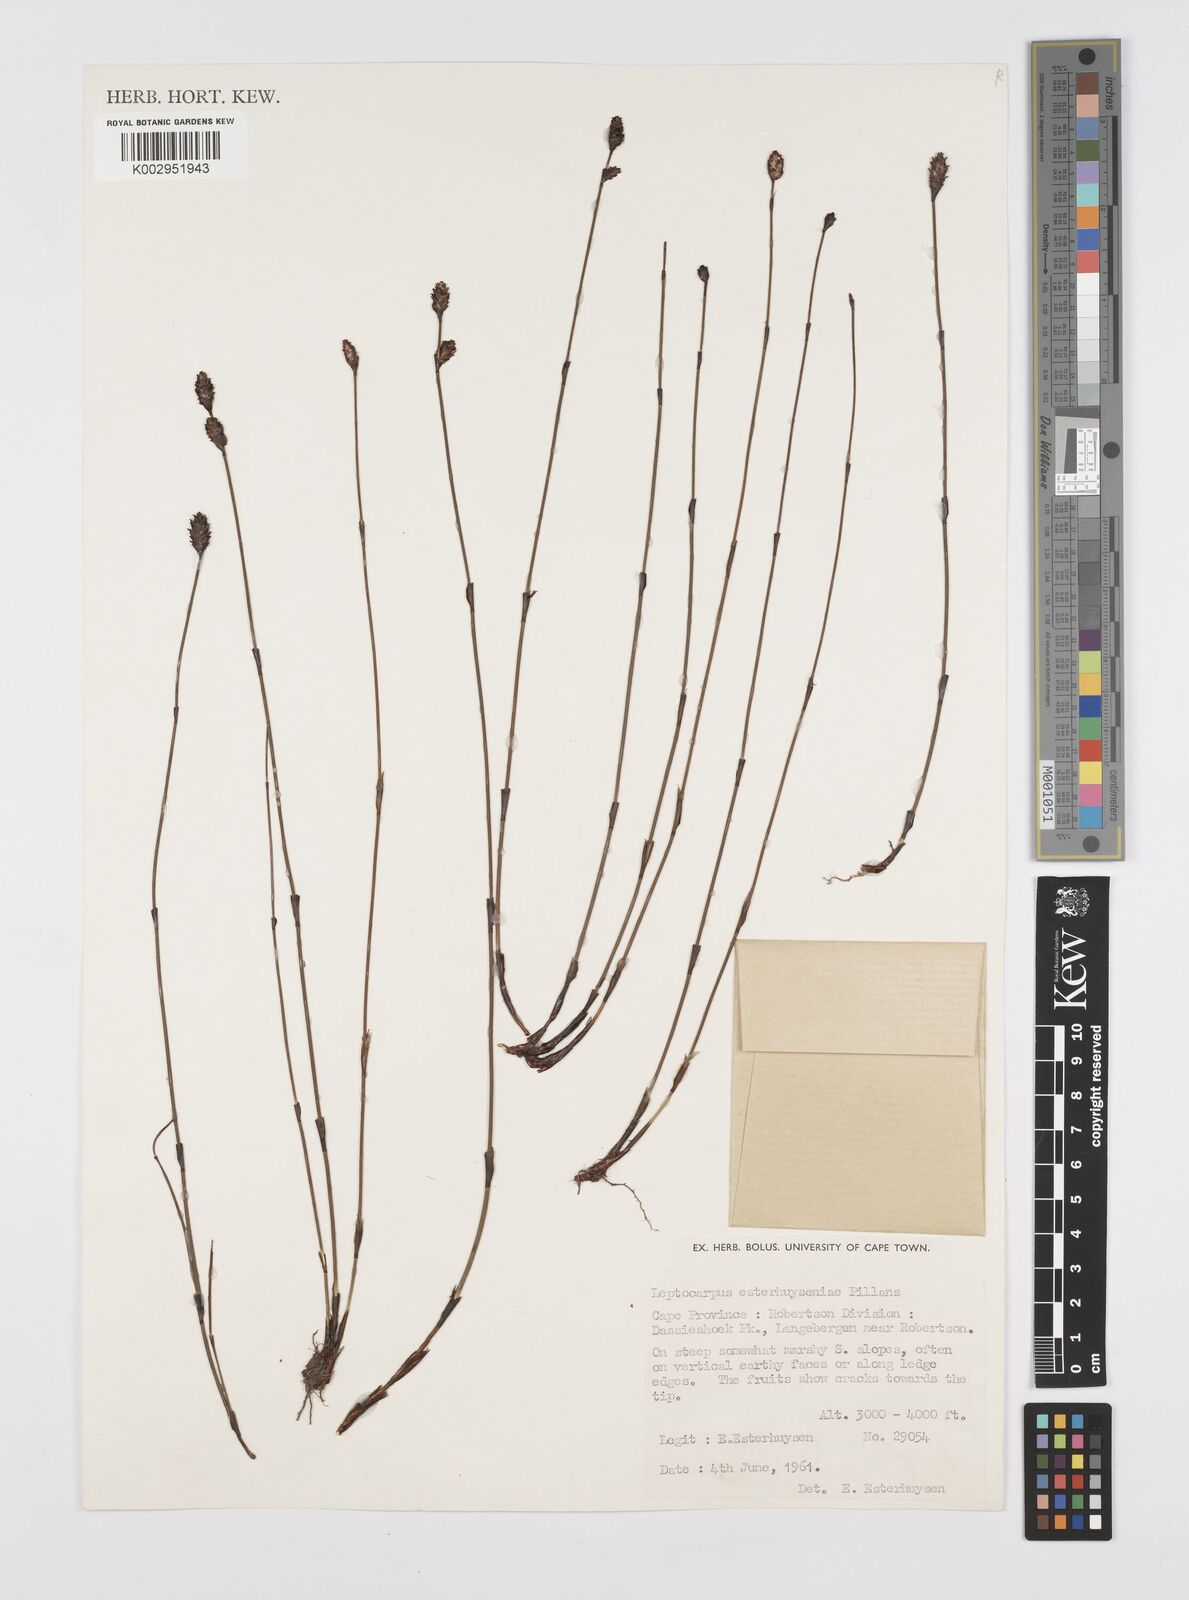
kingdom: Plantae
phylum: Tracheophyta
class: Liliopsida
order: Poales
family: Restionaceae
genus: Restio
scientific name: Restio esterhuyseniae
